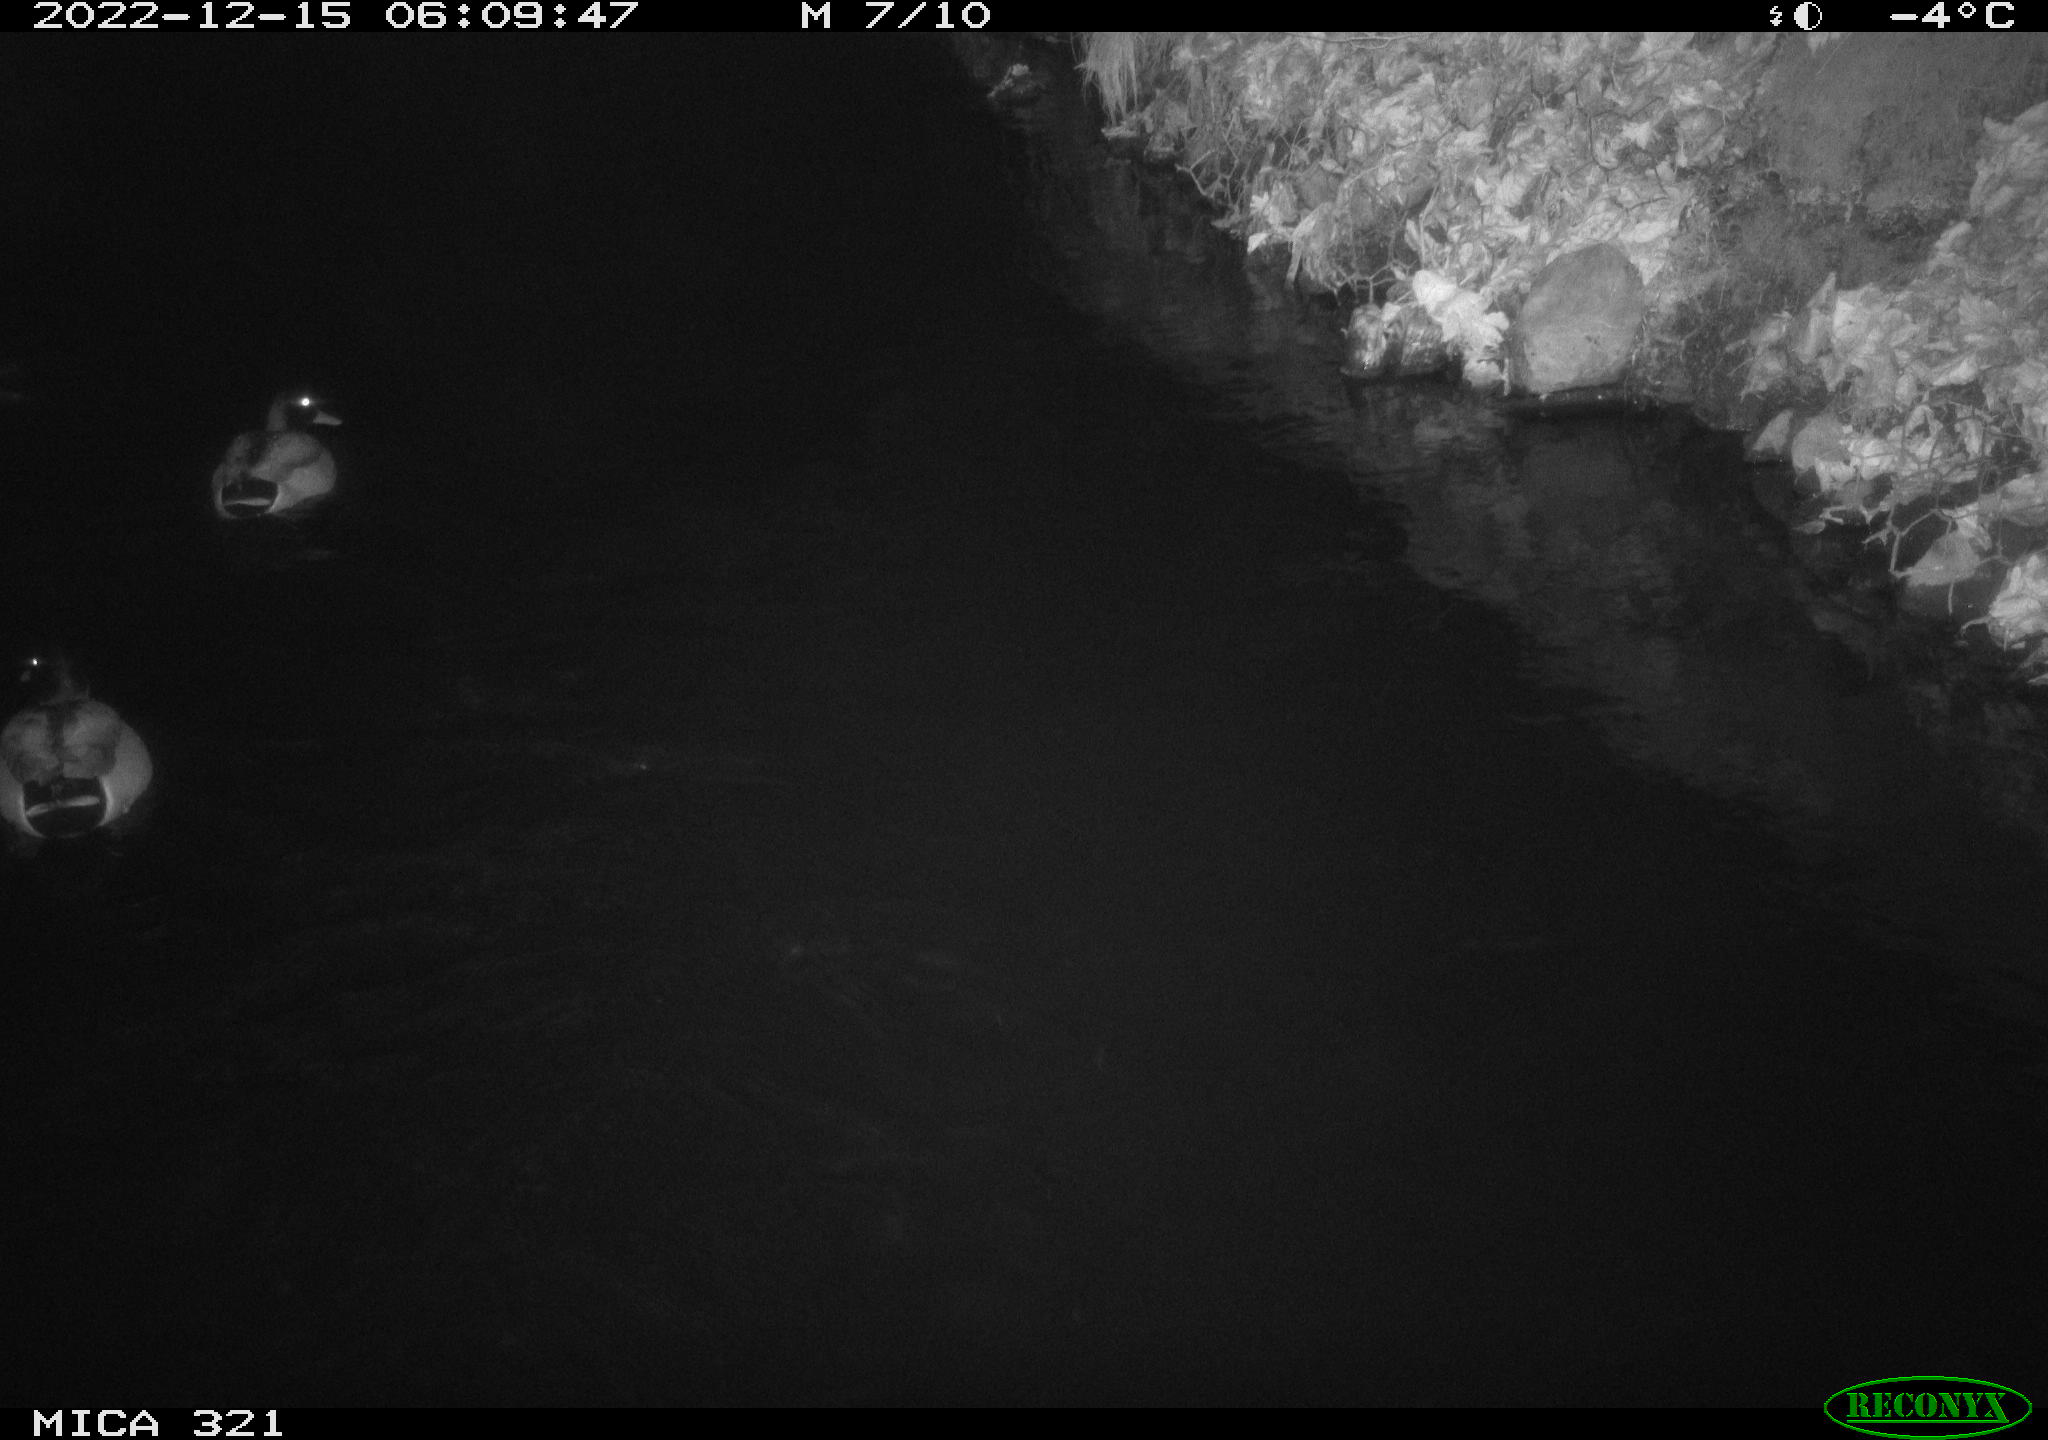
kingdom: Animalia
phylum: Chordata
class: Aves
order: Anseriformes
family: Anatidae
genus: Anas
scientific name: Anas
